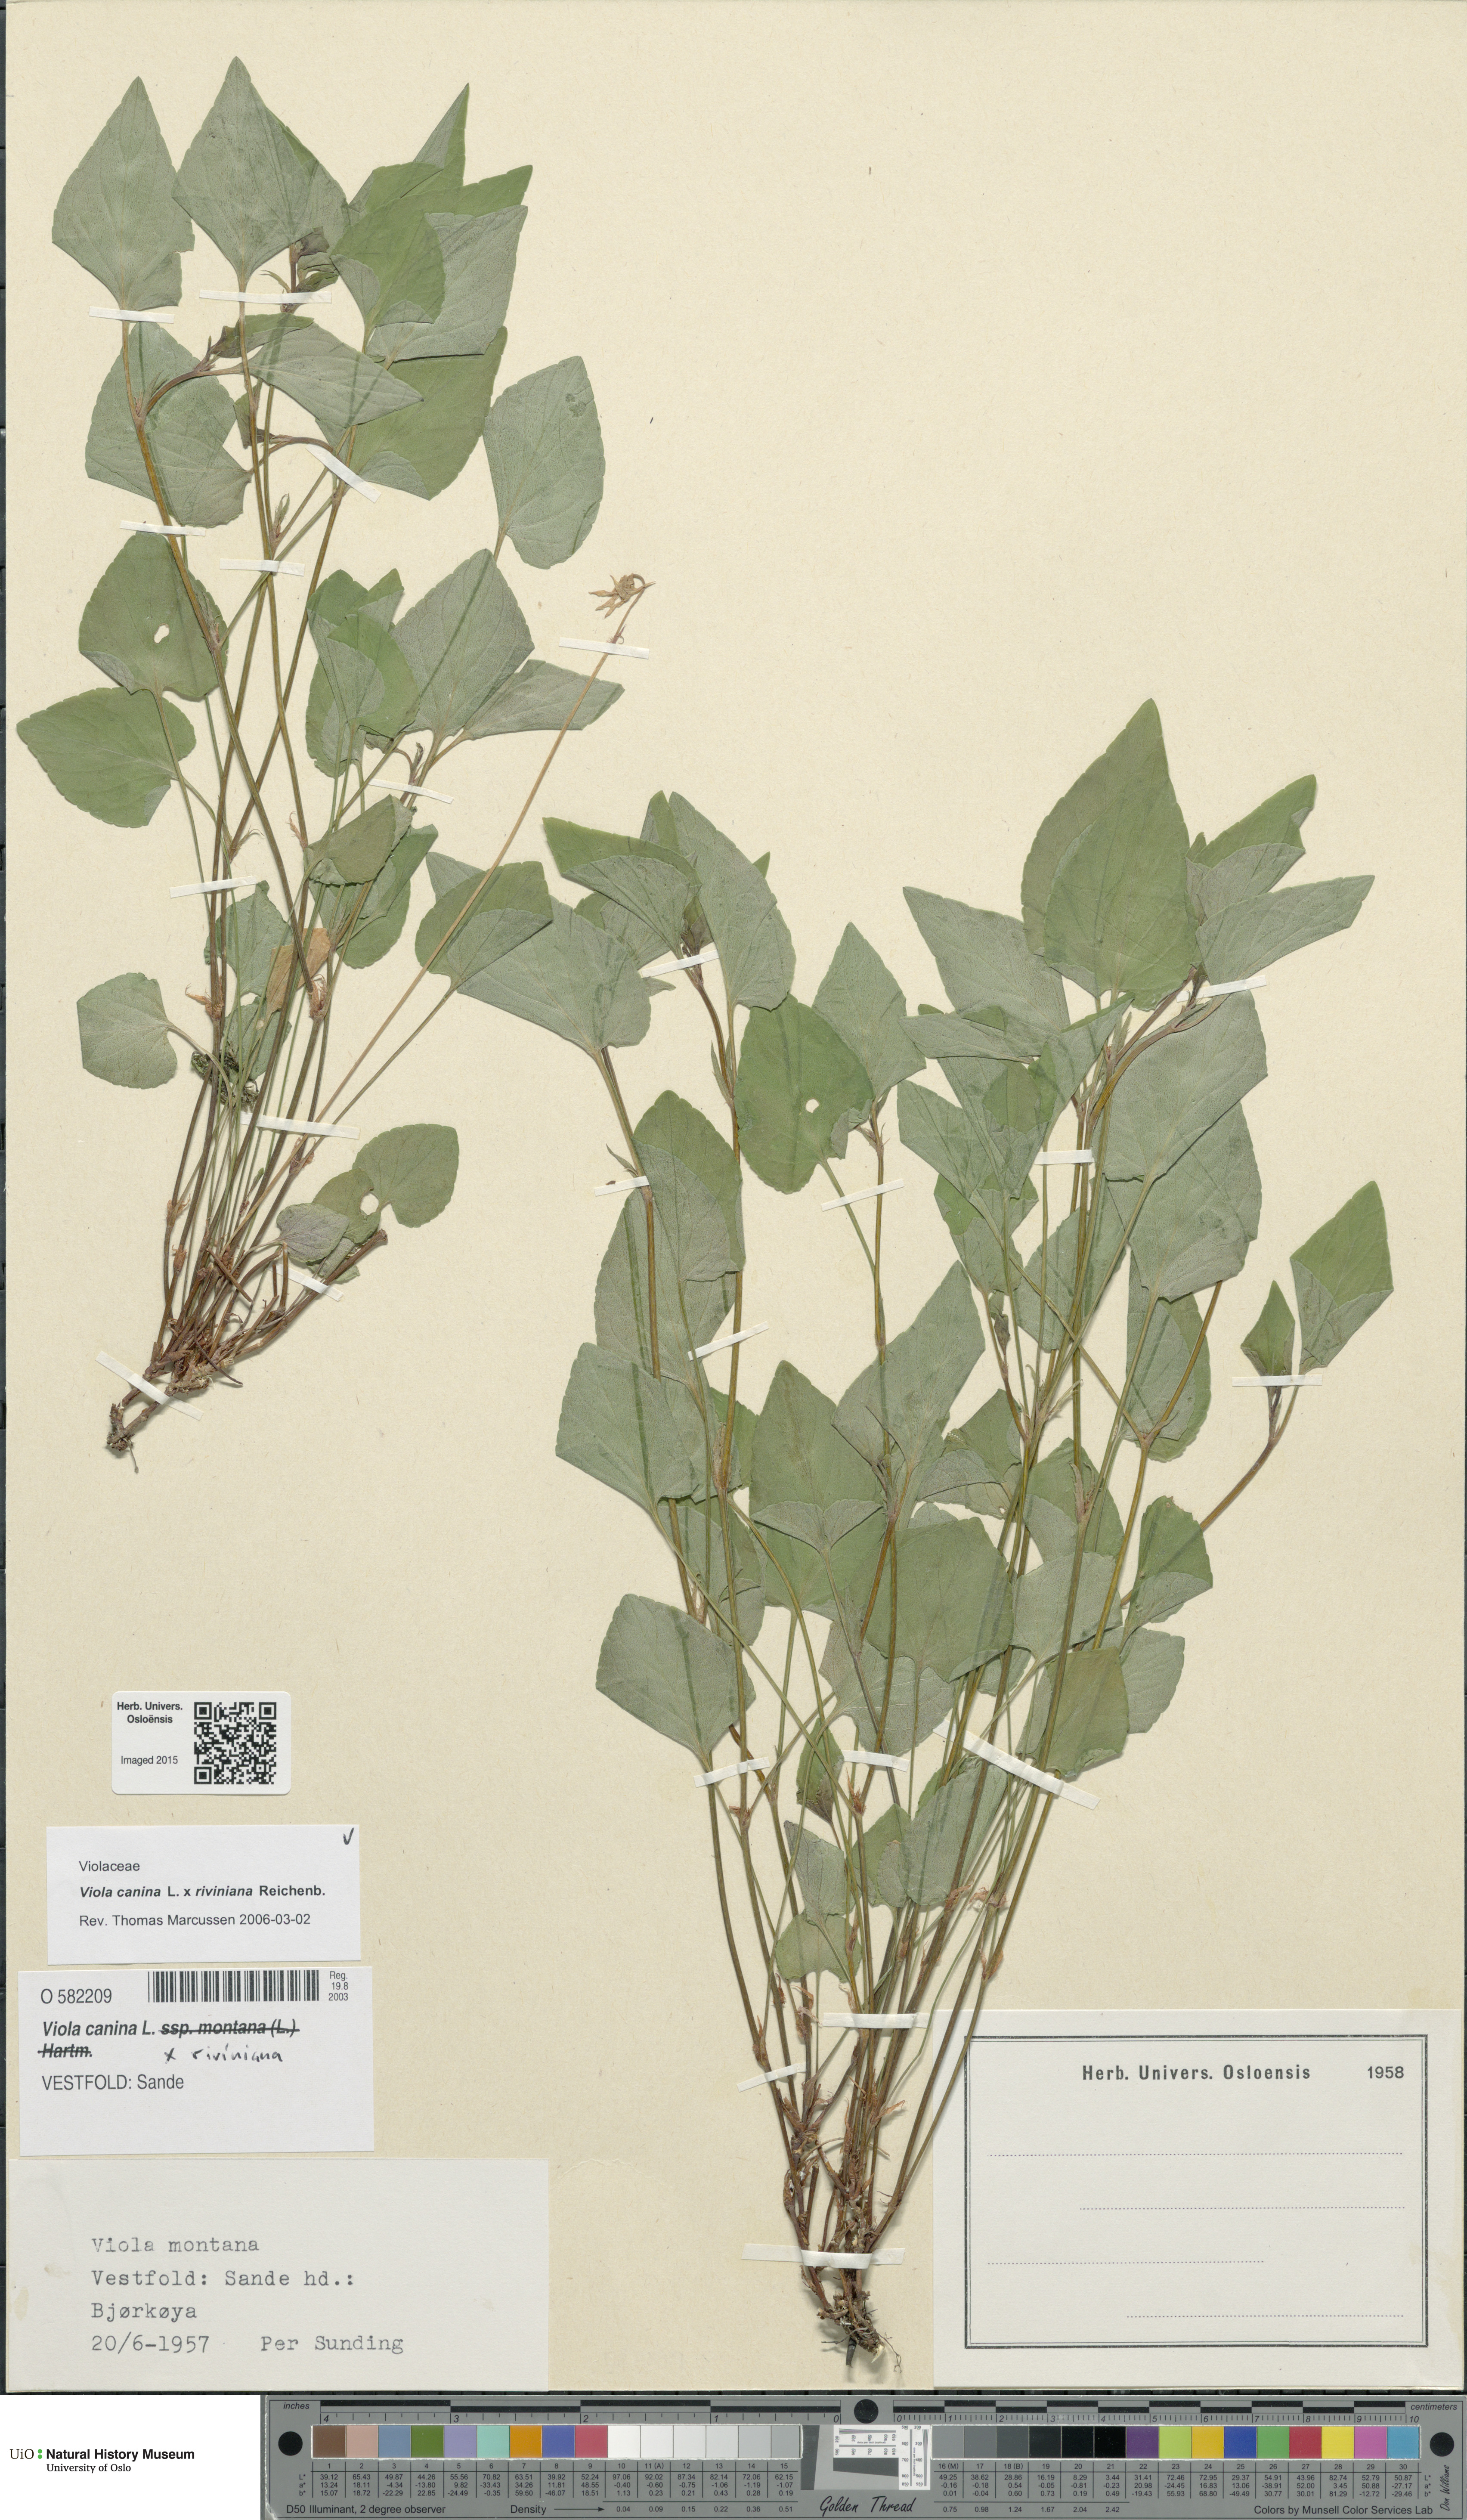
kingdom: Plantae
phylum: Tracheophyta
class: Magnoliopsida
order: Malpighiales
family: Violaceae
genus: Viola
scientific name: Viola
